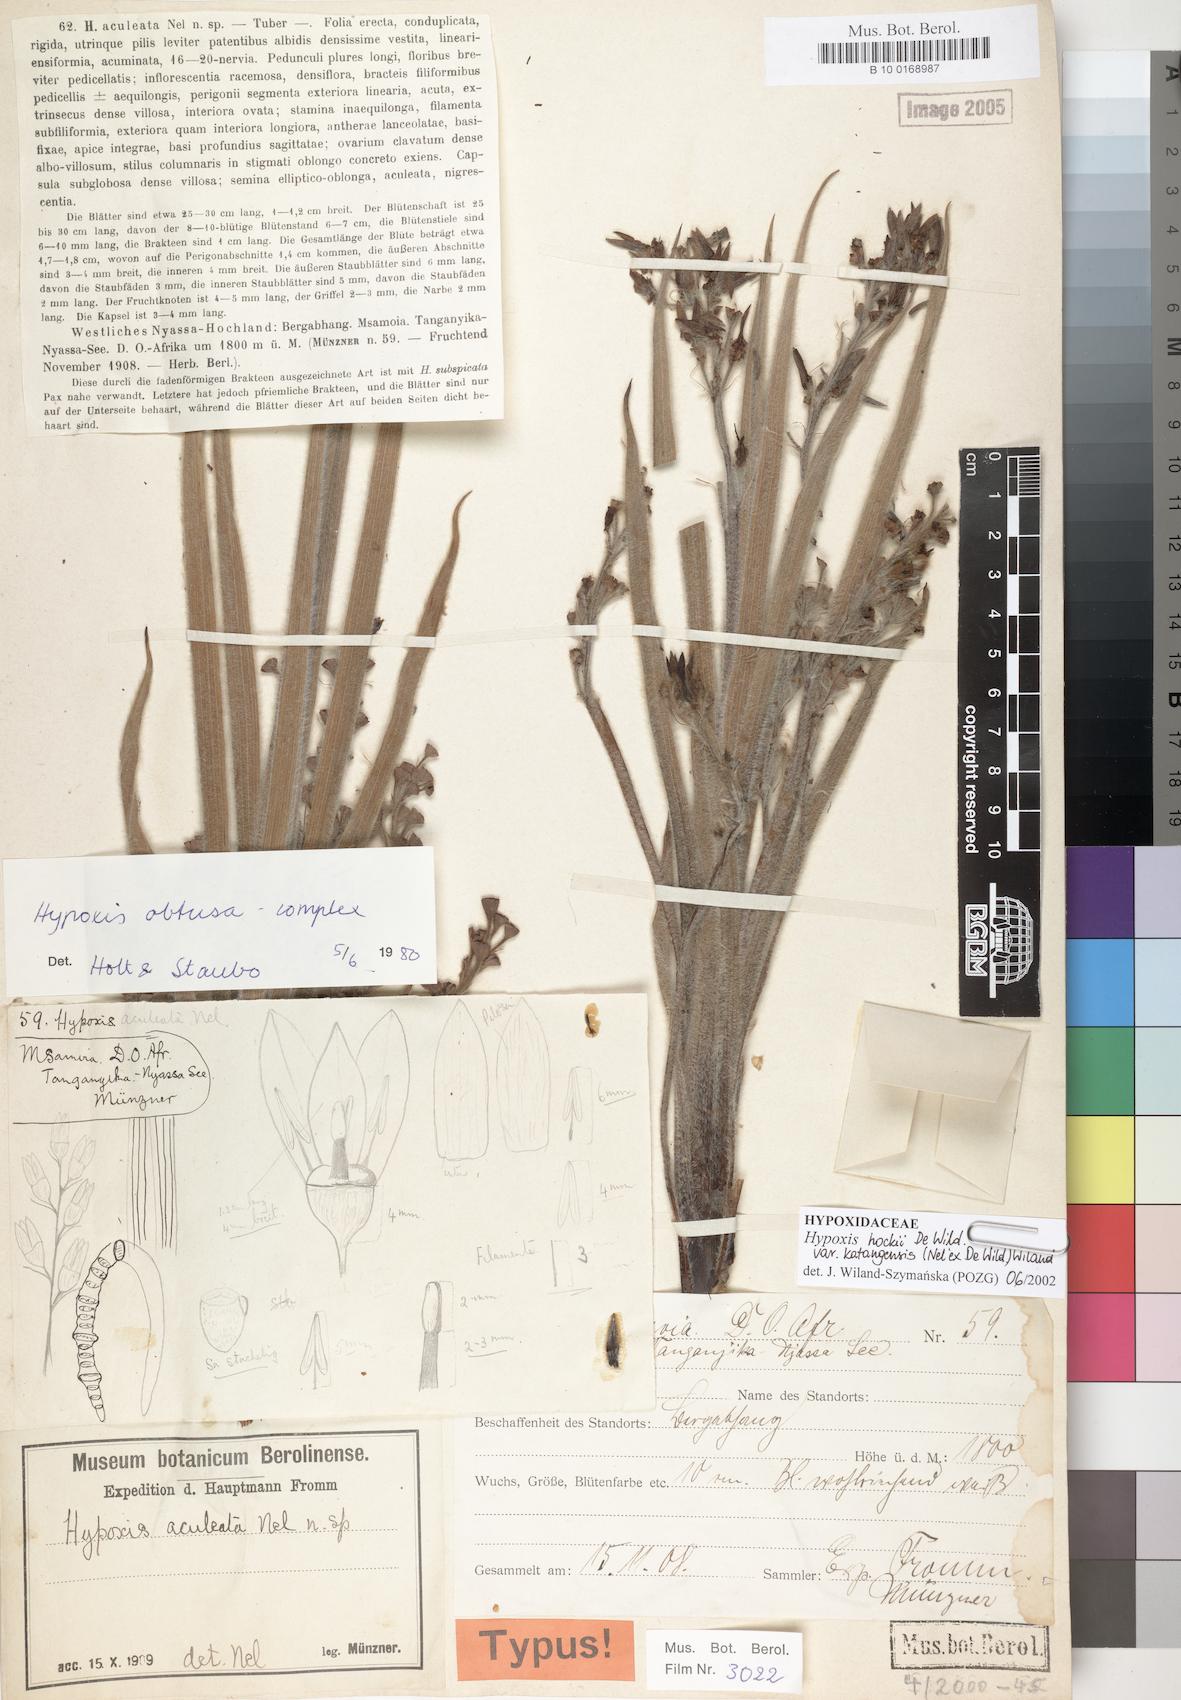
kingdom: Plantae
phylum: Tracheophyta
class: Liliopsida
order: Asparagales
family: Hypoxidaceae
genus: Hypoxis
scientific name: Hypoxis fischeri
